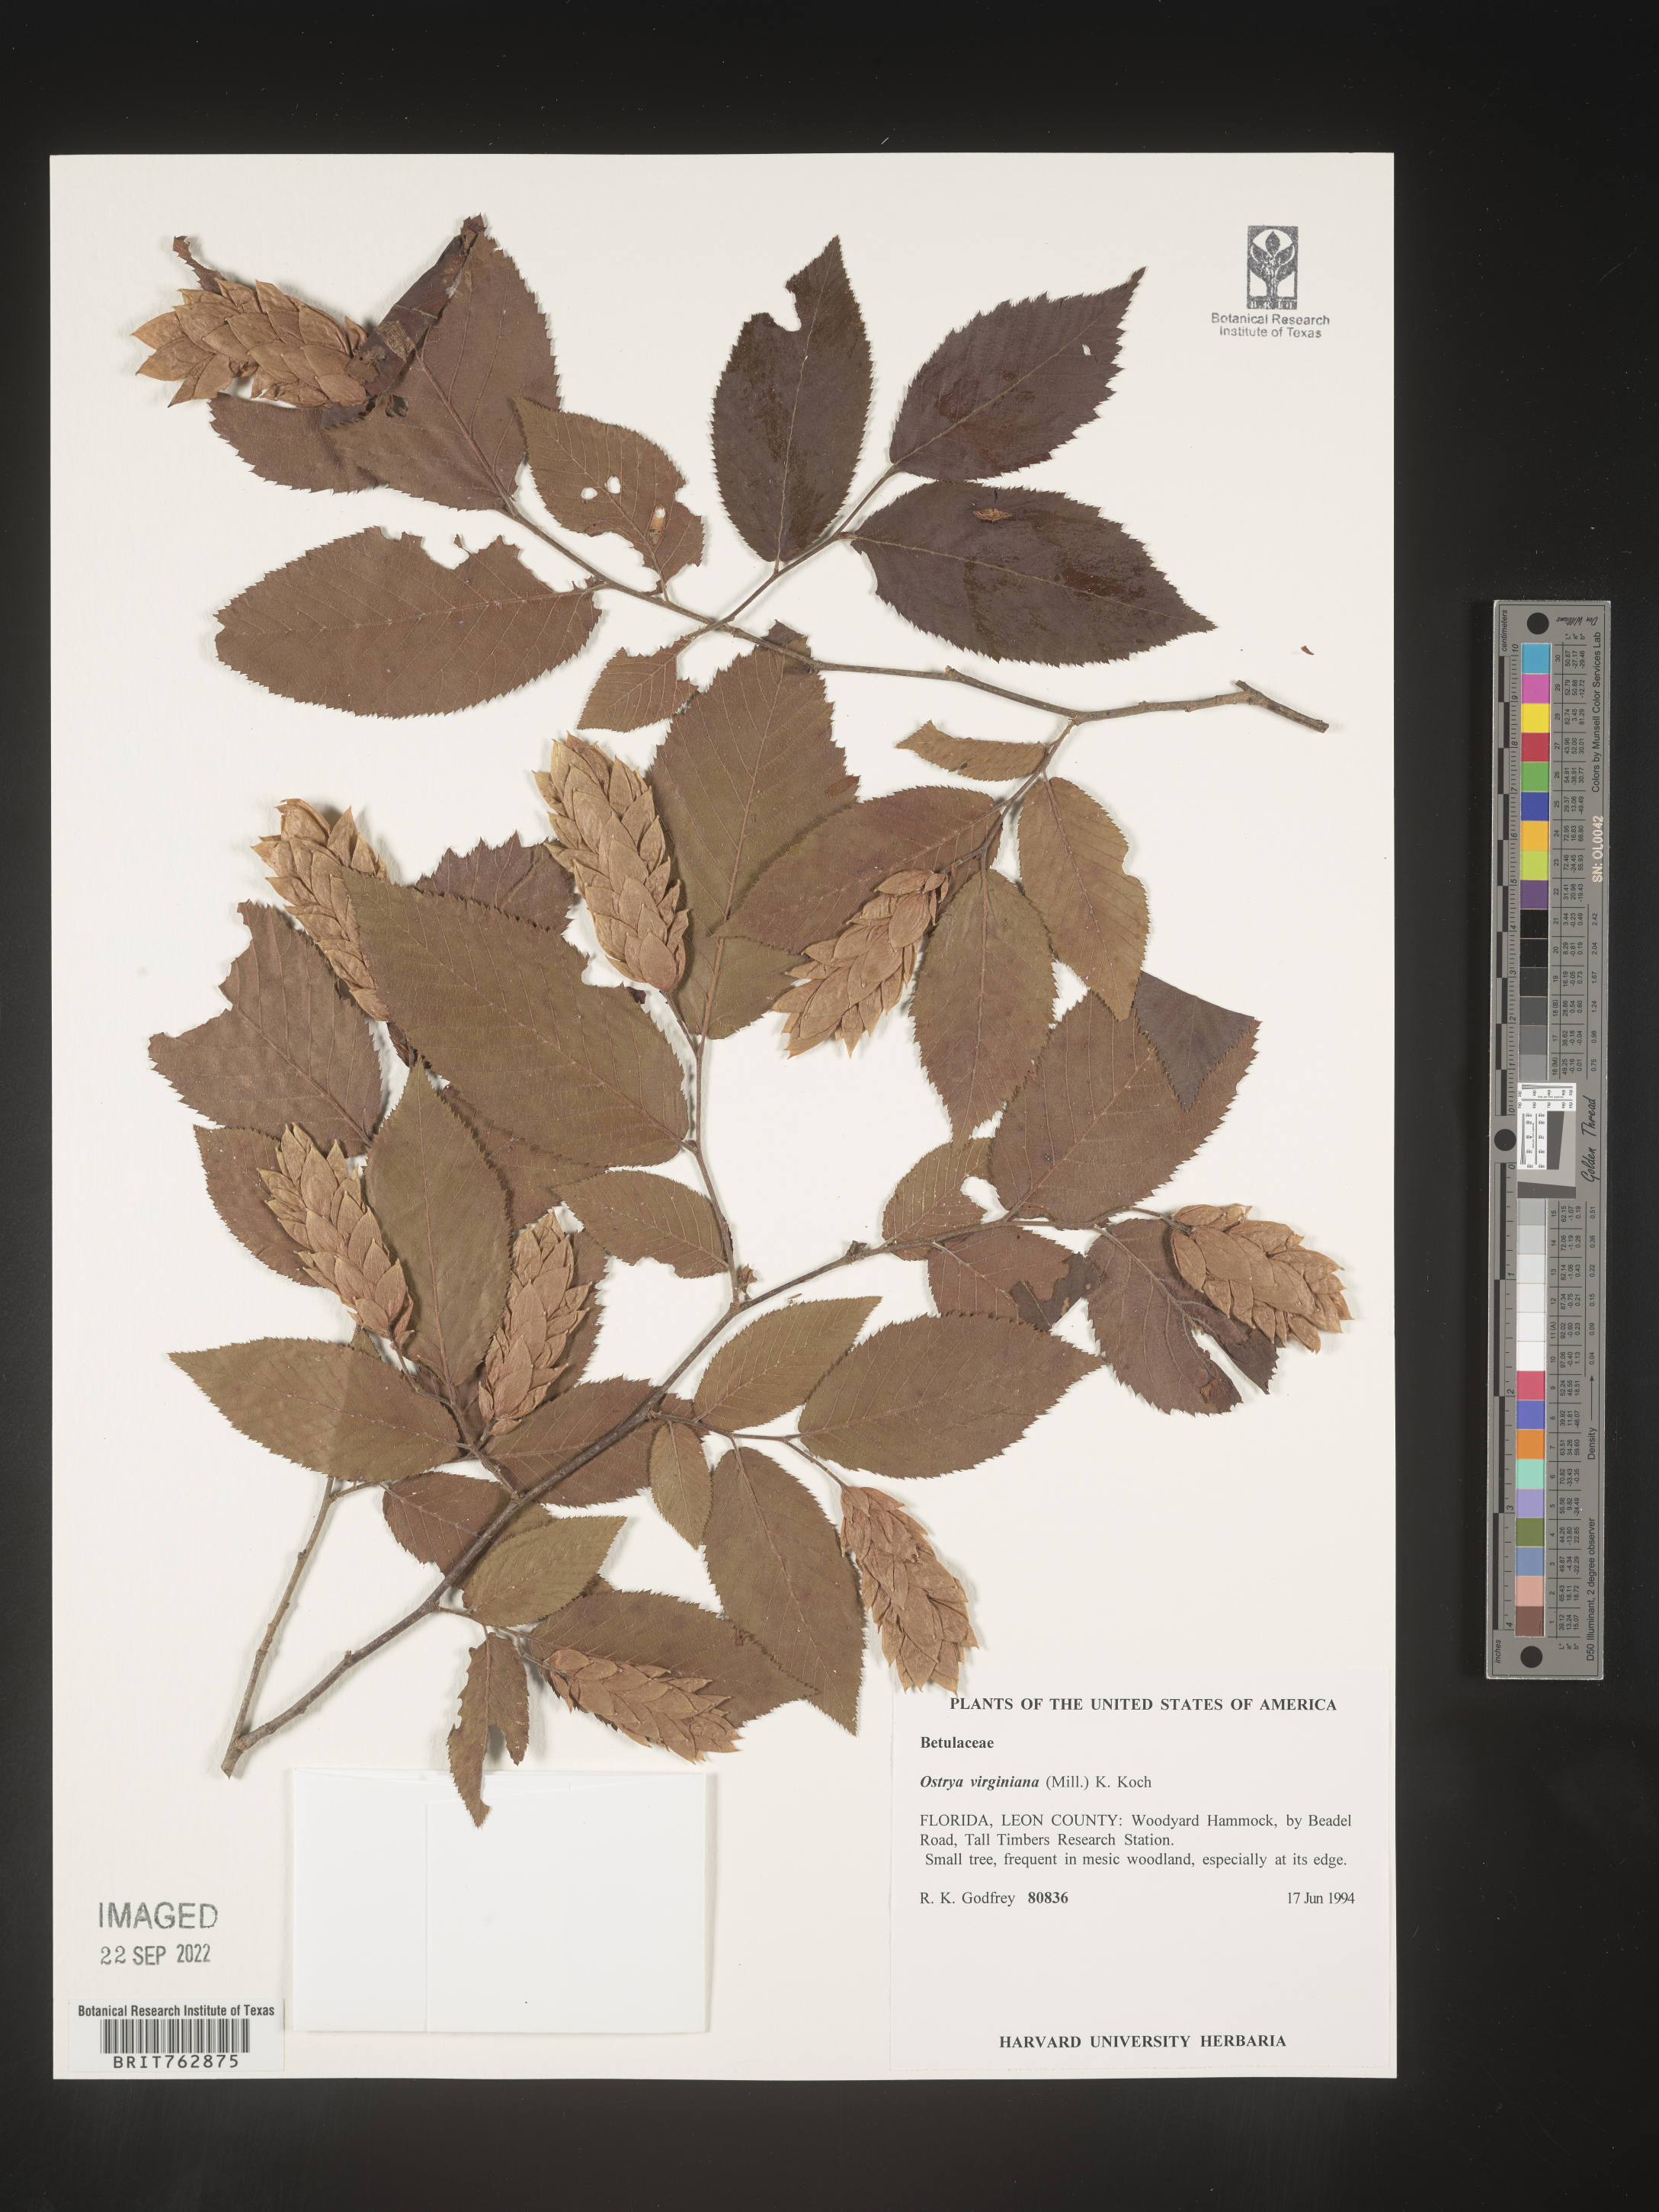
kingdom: Plantae
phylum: Tracheophyta
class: Magnoliopsida
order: Fagales
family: Betulaceae
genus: Ostrya
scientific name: Ostrya virginiana
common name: Ironwood
